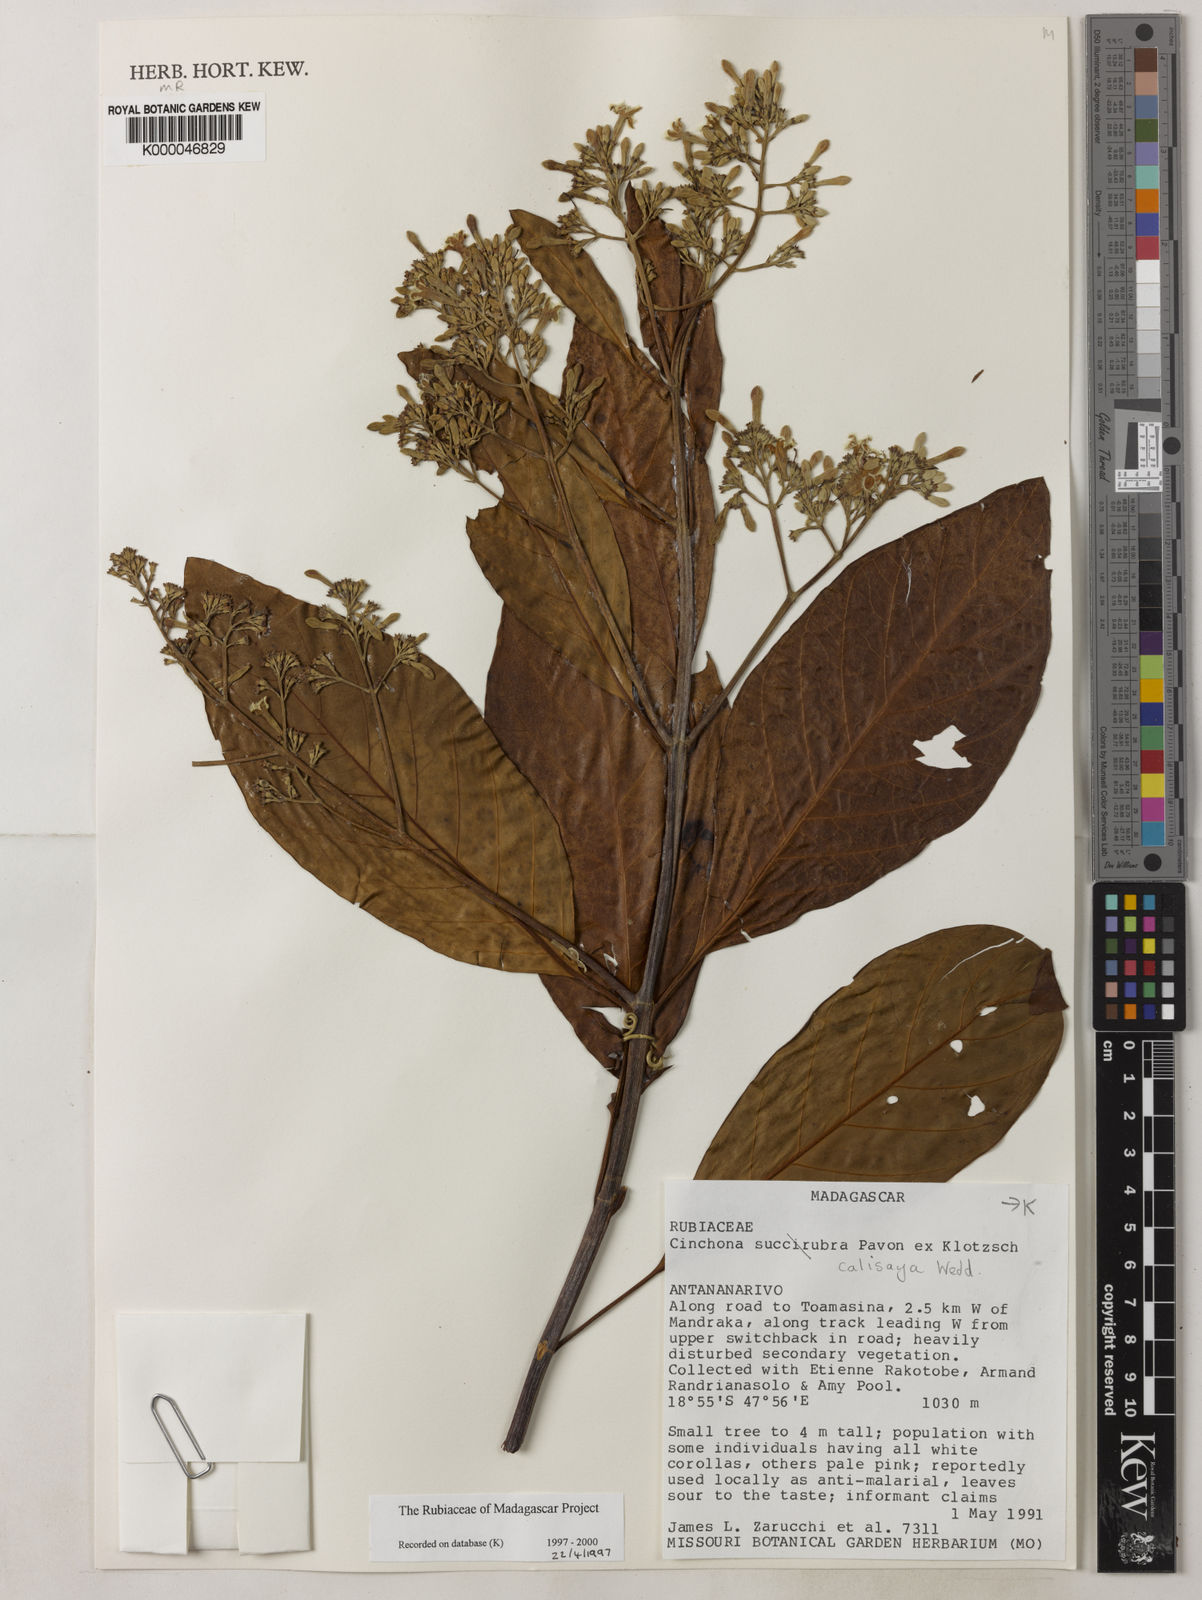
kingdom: Plantae
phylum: Tracheophyta
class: Magnoliopsida
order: Gentianales
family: Rubiaceae
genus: Cinchona
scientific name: Cinchona calisaya
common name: Ledgerbark
